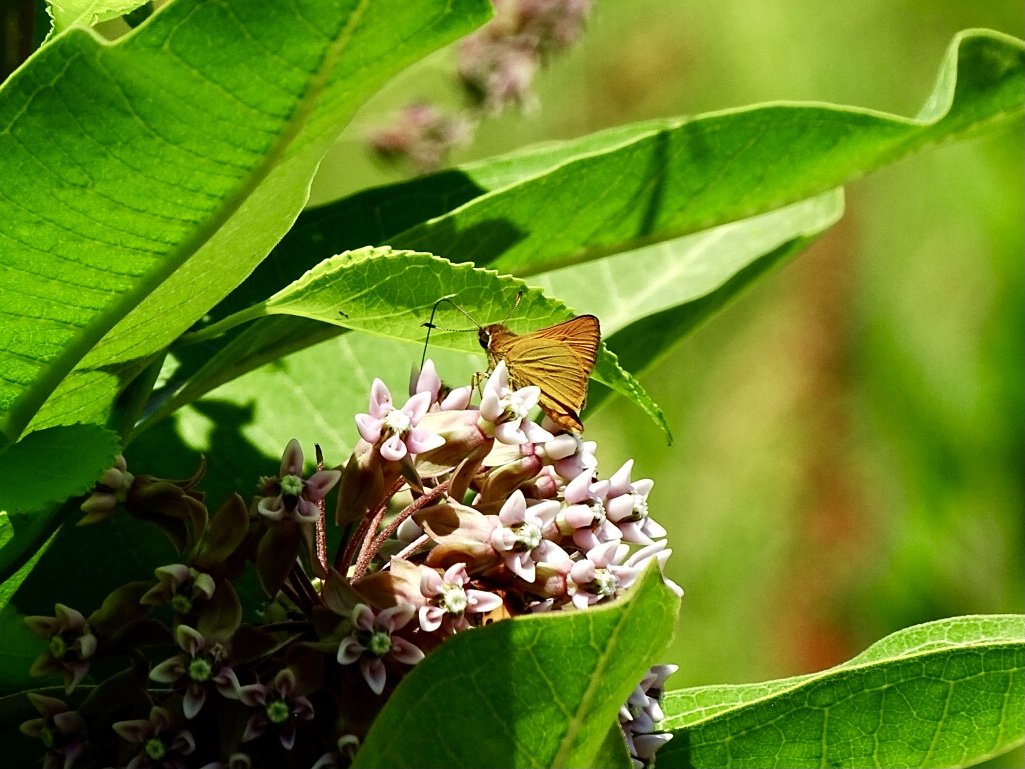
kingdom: Animalia
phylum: Arthropoda
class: Insecta
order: Lepidoptera
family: Hesperiidae
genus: Atrytone
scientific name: Atrytone delaware
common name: Delaware Skipper
